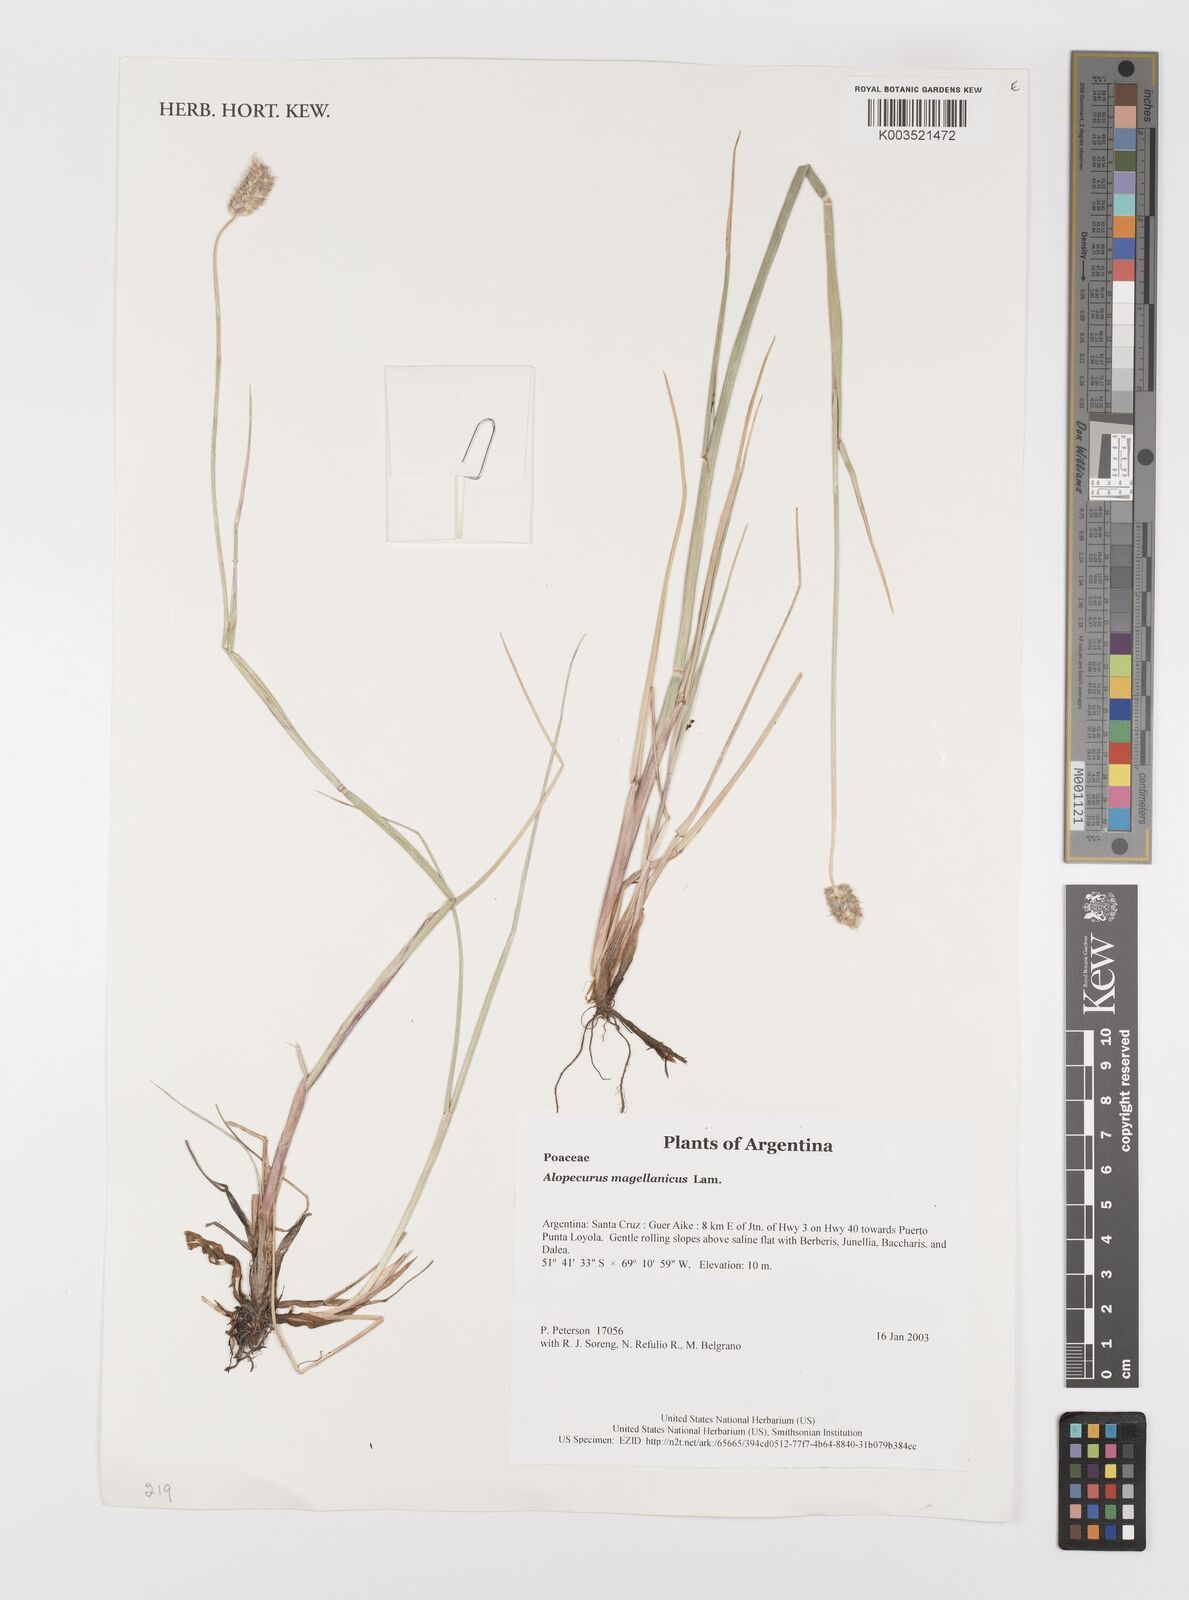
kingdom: Plantae
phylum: Tracheophyta
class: Liliopsida
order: Poales
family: Poaceae
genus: Alopecurus
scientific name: Alopecurus magellanicus
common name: Alpine foxtail
